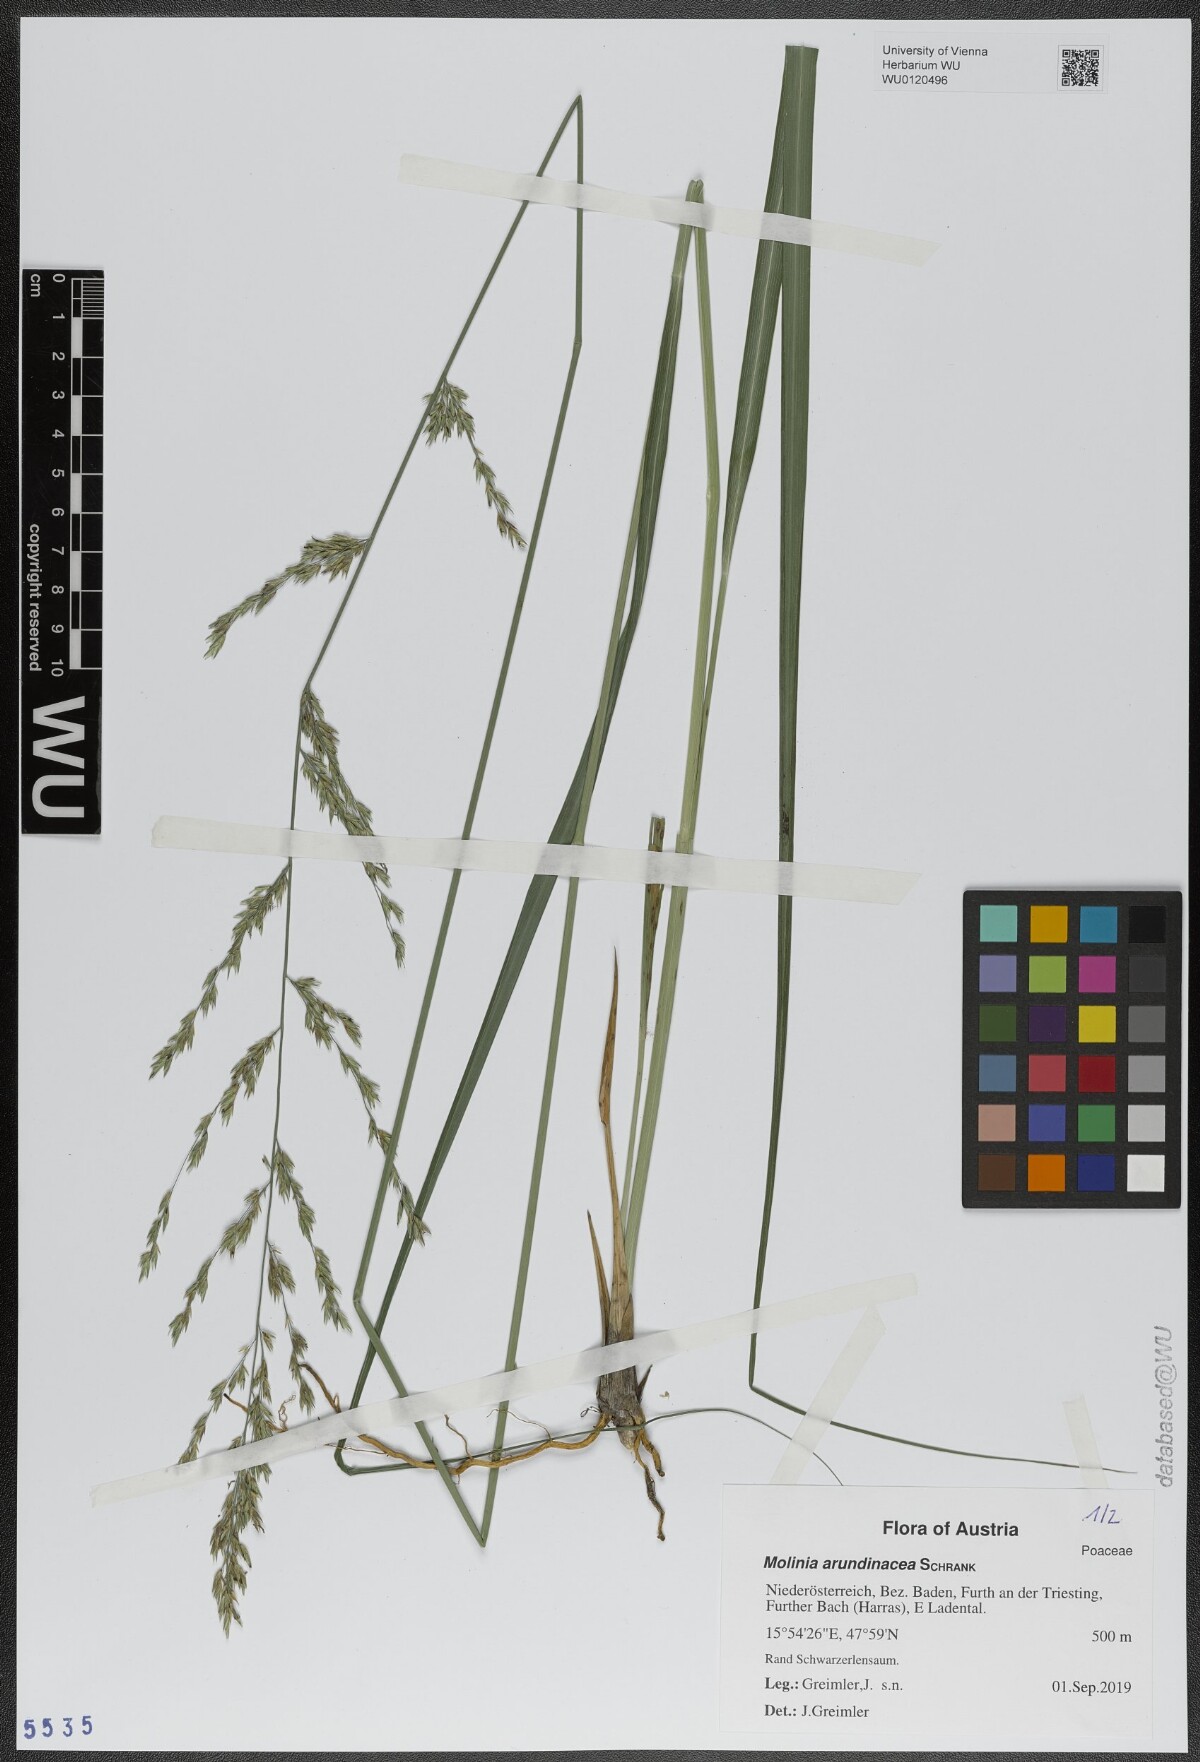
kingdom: Plantae
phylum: Tracheophyta
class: Liliopsida
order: Poales
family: Poaceae
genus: Molinia
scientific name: Molinia arundinacea
